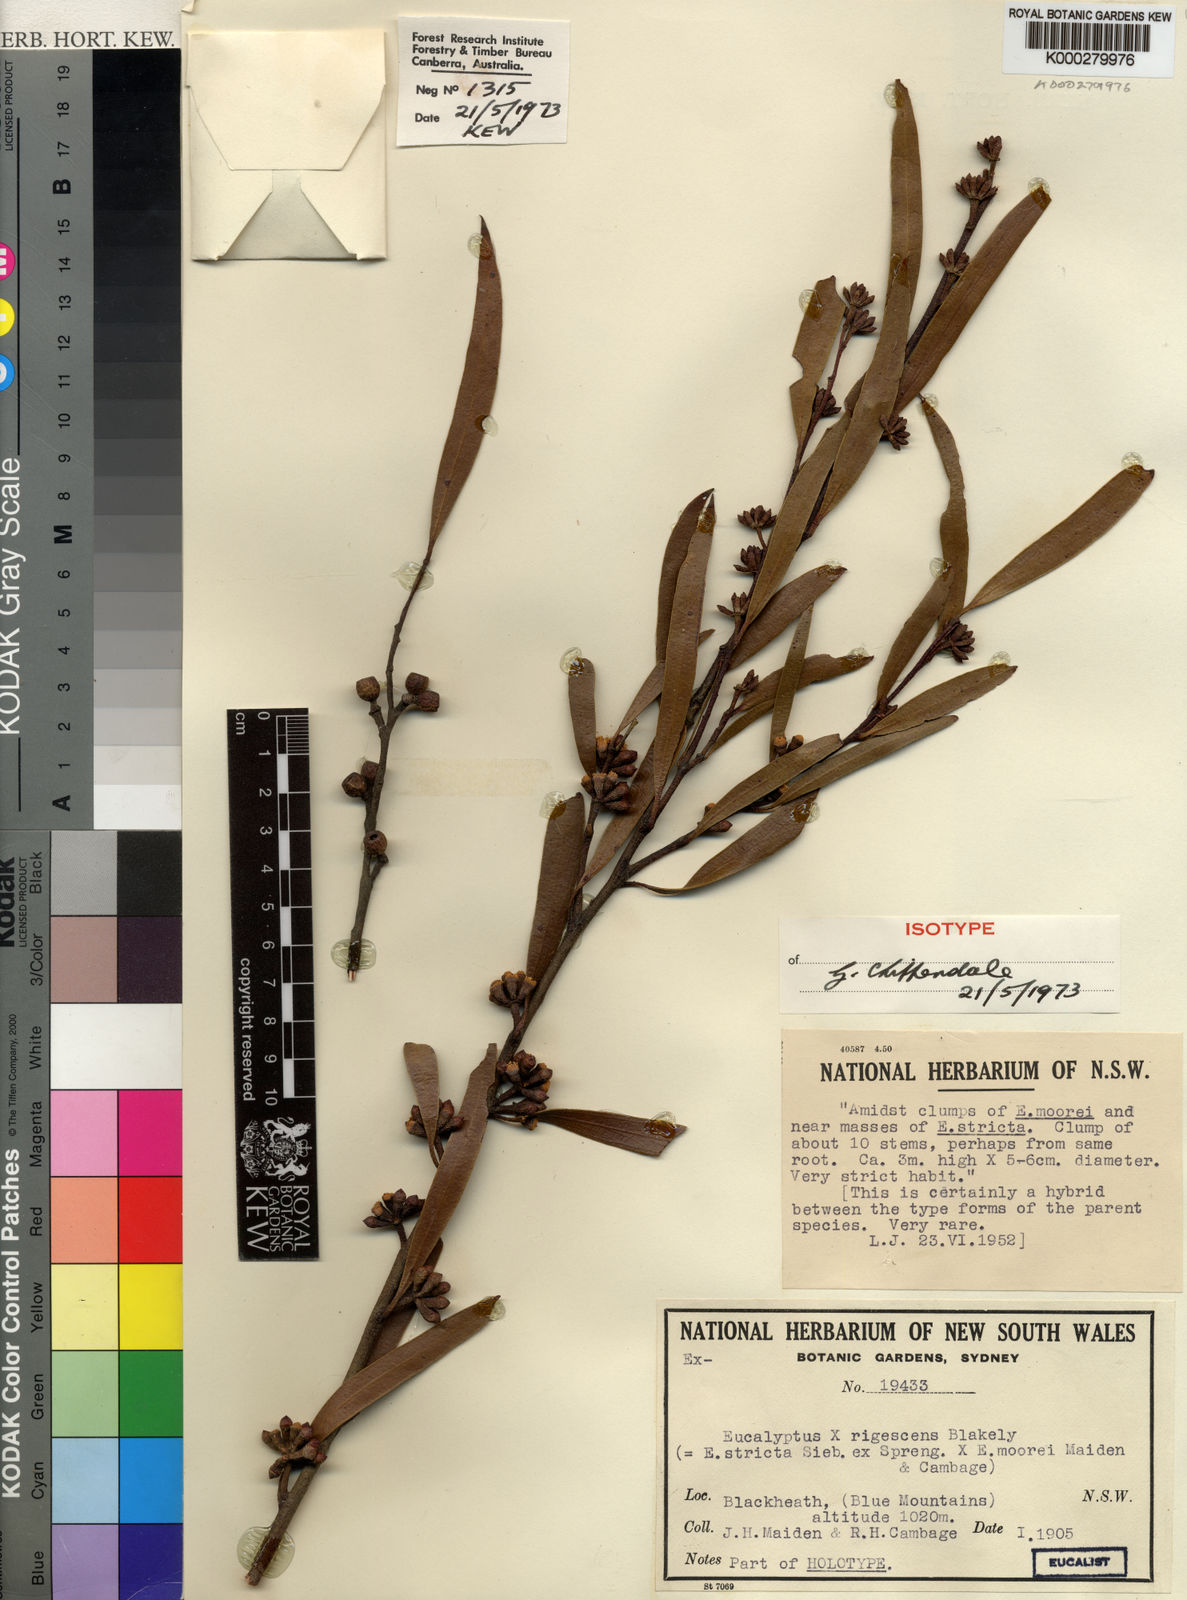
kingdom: Plantae
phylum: Tracheophyta
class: Magnoliopsida
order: Myrtales
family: Myrtaceae
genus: Eucalyptus
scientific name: Eucalyptus rigescens
